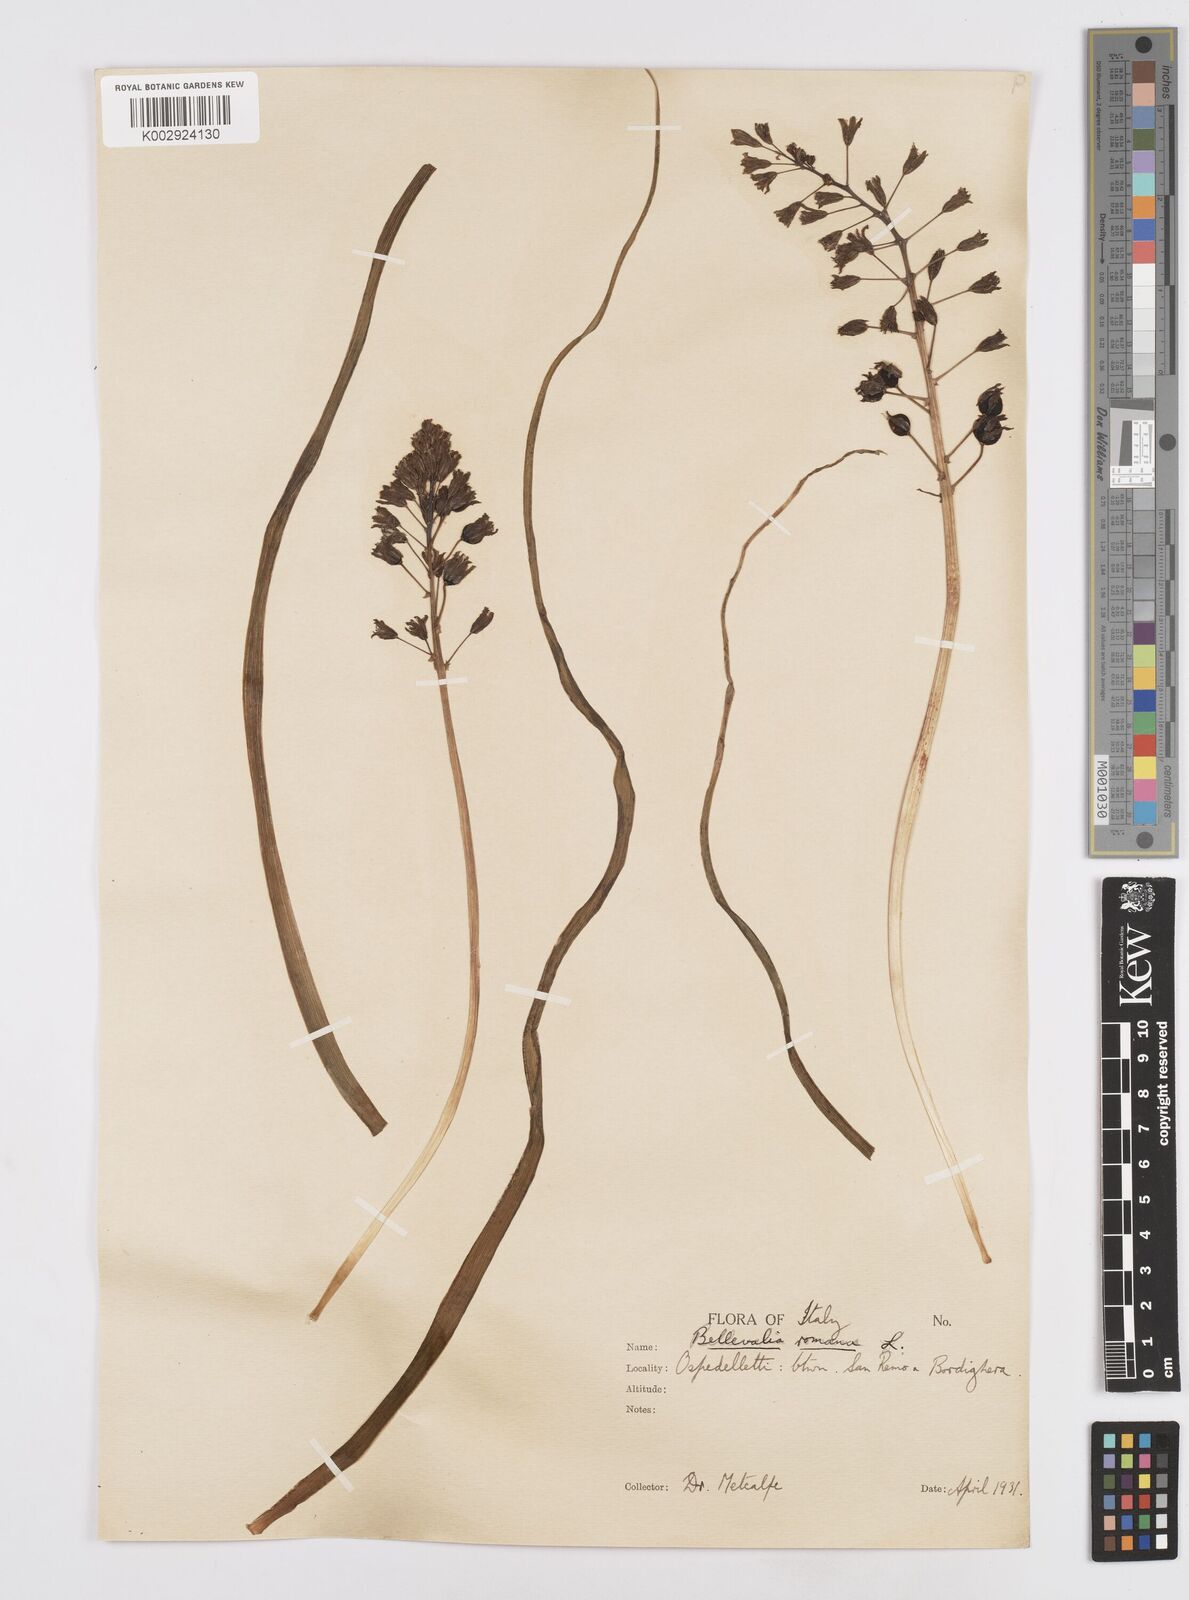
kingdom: Plantae
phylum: Tracheophyta
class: Liliopsida
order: Asparagales
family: Asparagaceae
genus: Bellevalia
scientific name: Bellevalia
